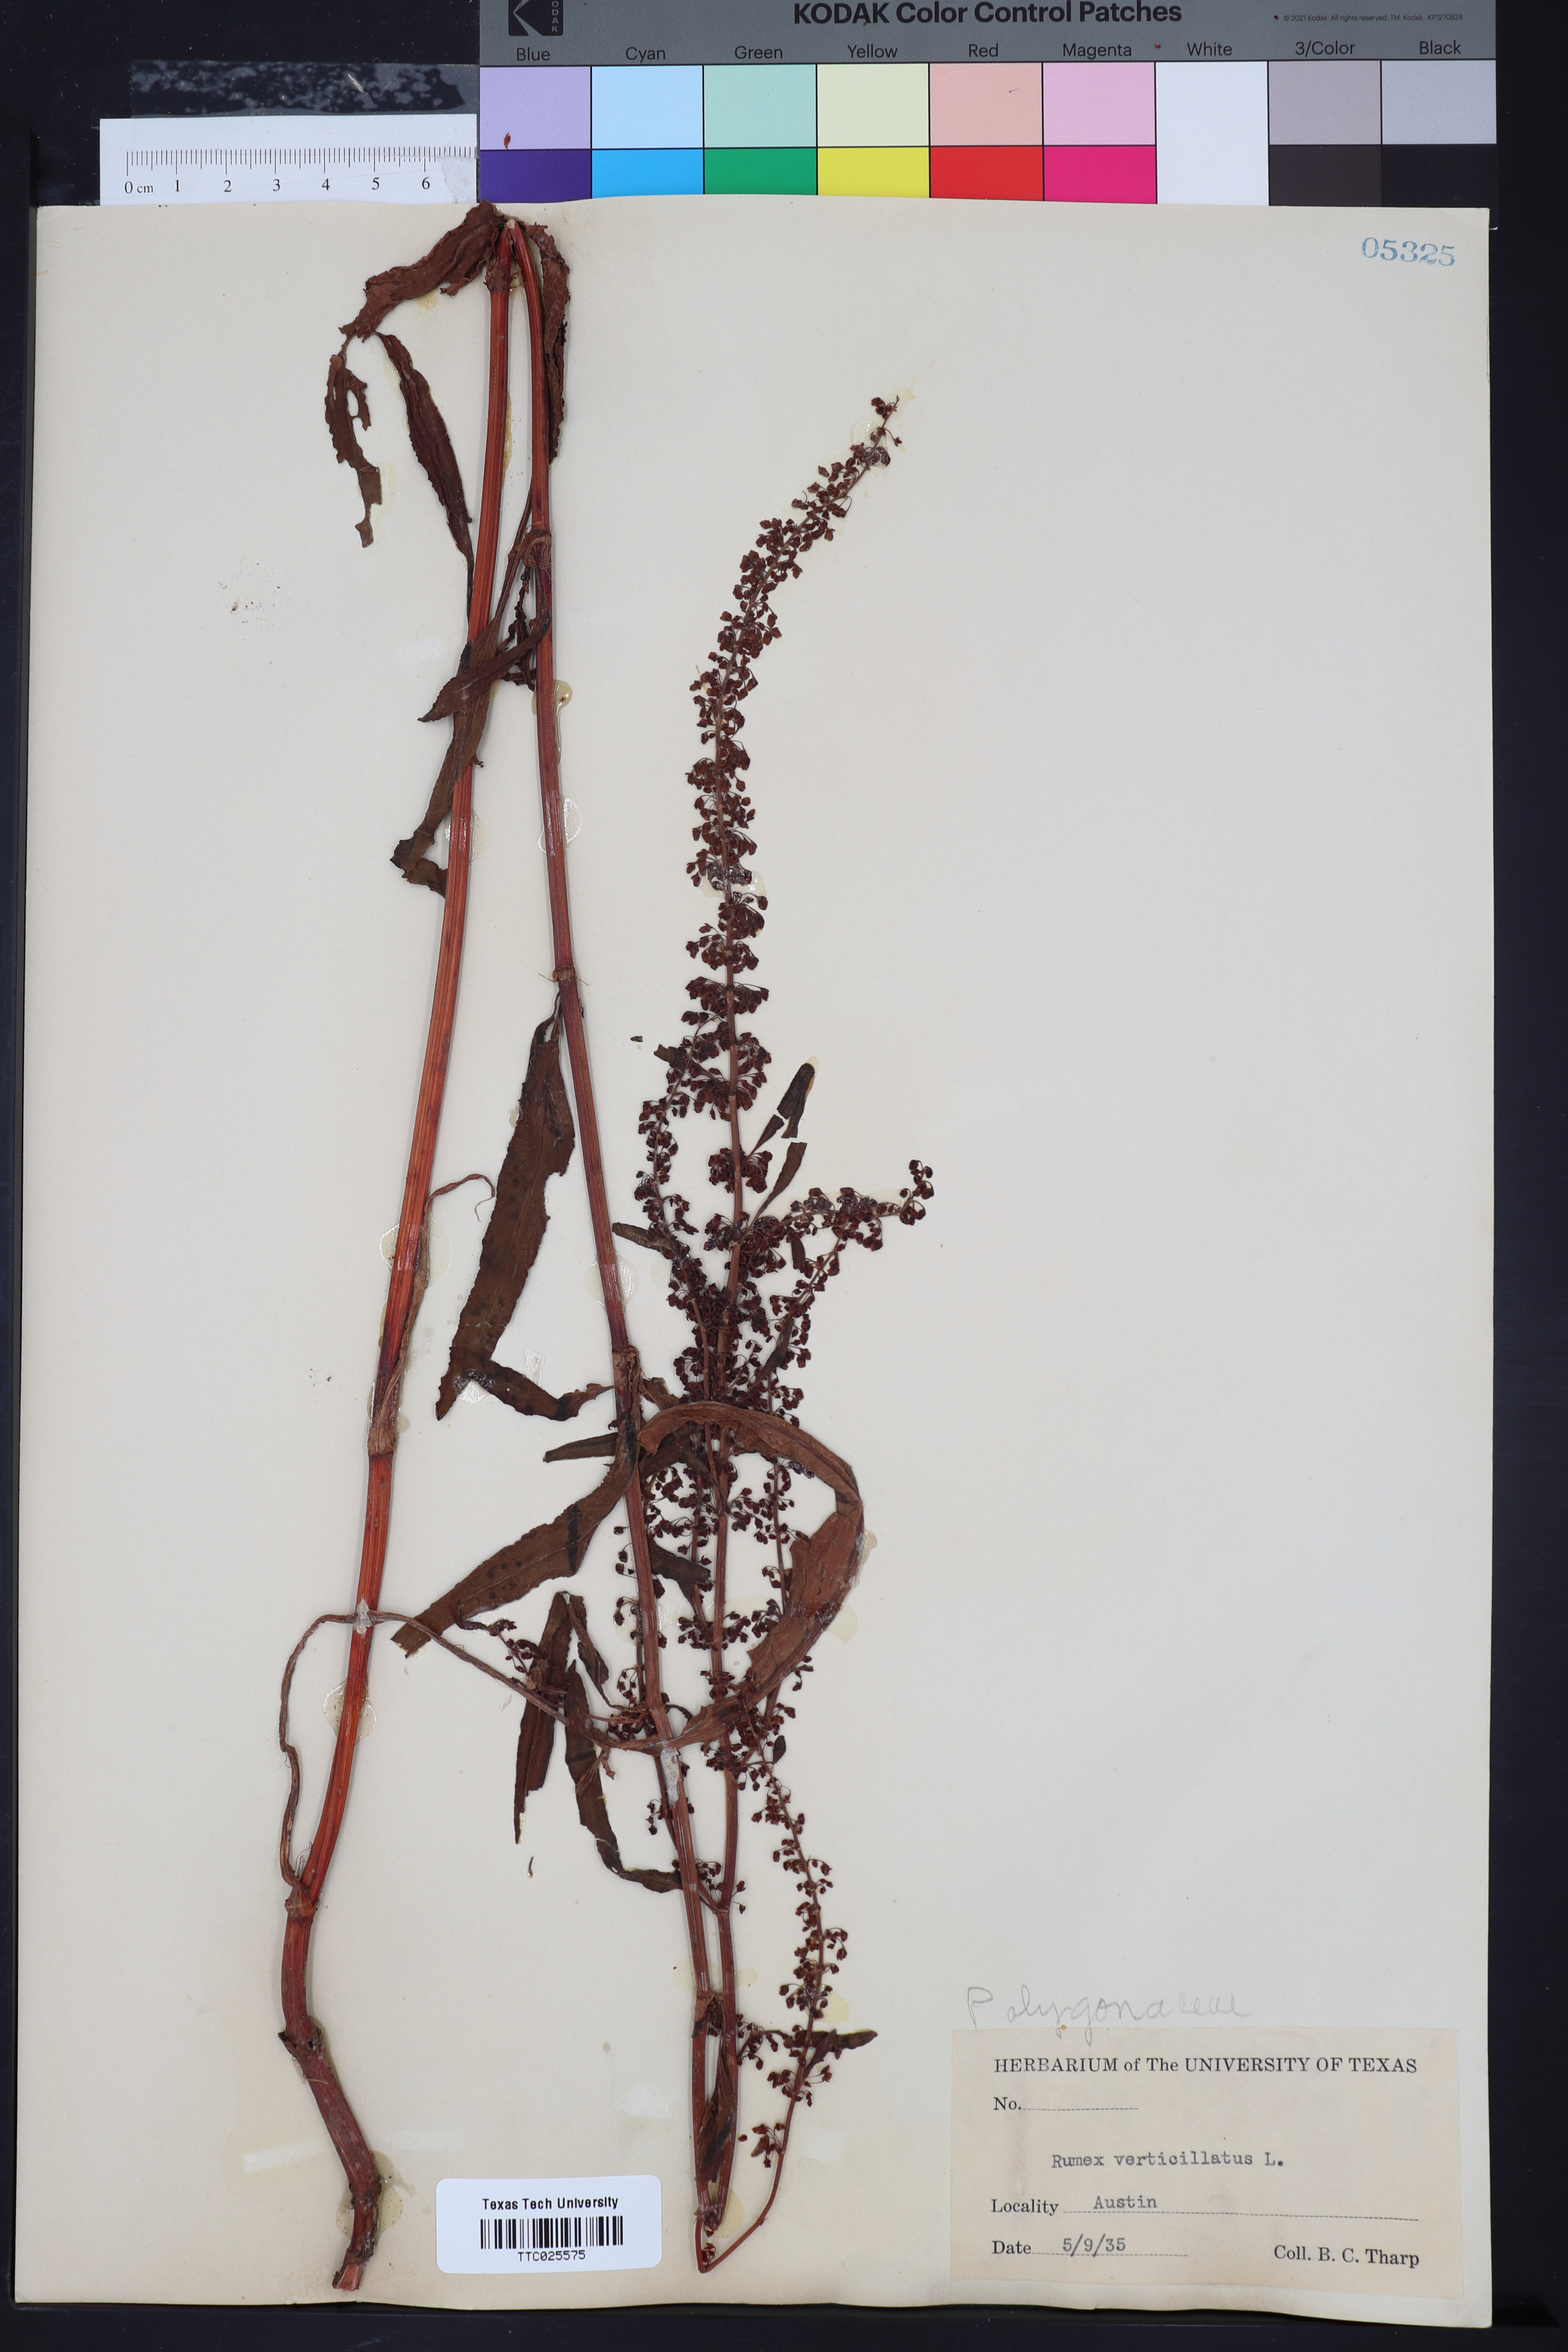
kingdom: Plantae
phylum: Tracheophyta
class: Magnoliopsida
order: Caryophyllales
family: Polygonaceae
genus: Rumex
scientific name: Rumex verticillatus
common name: Swamp dock
